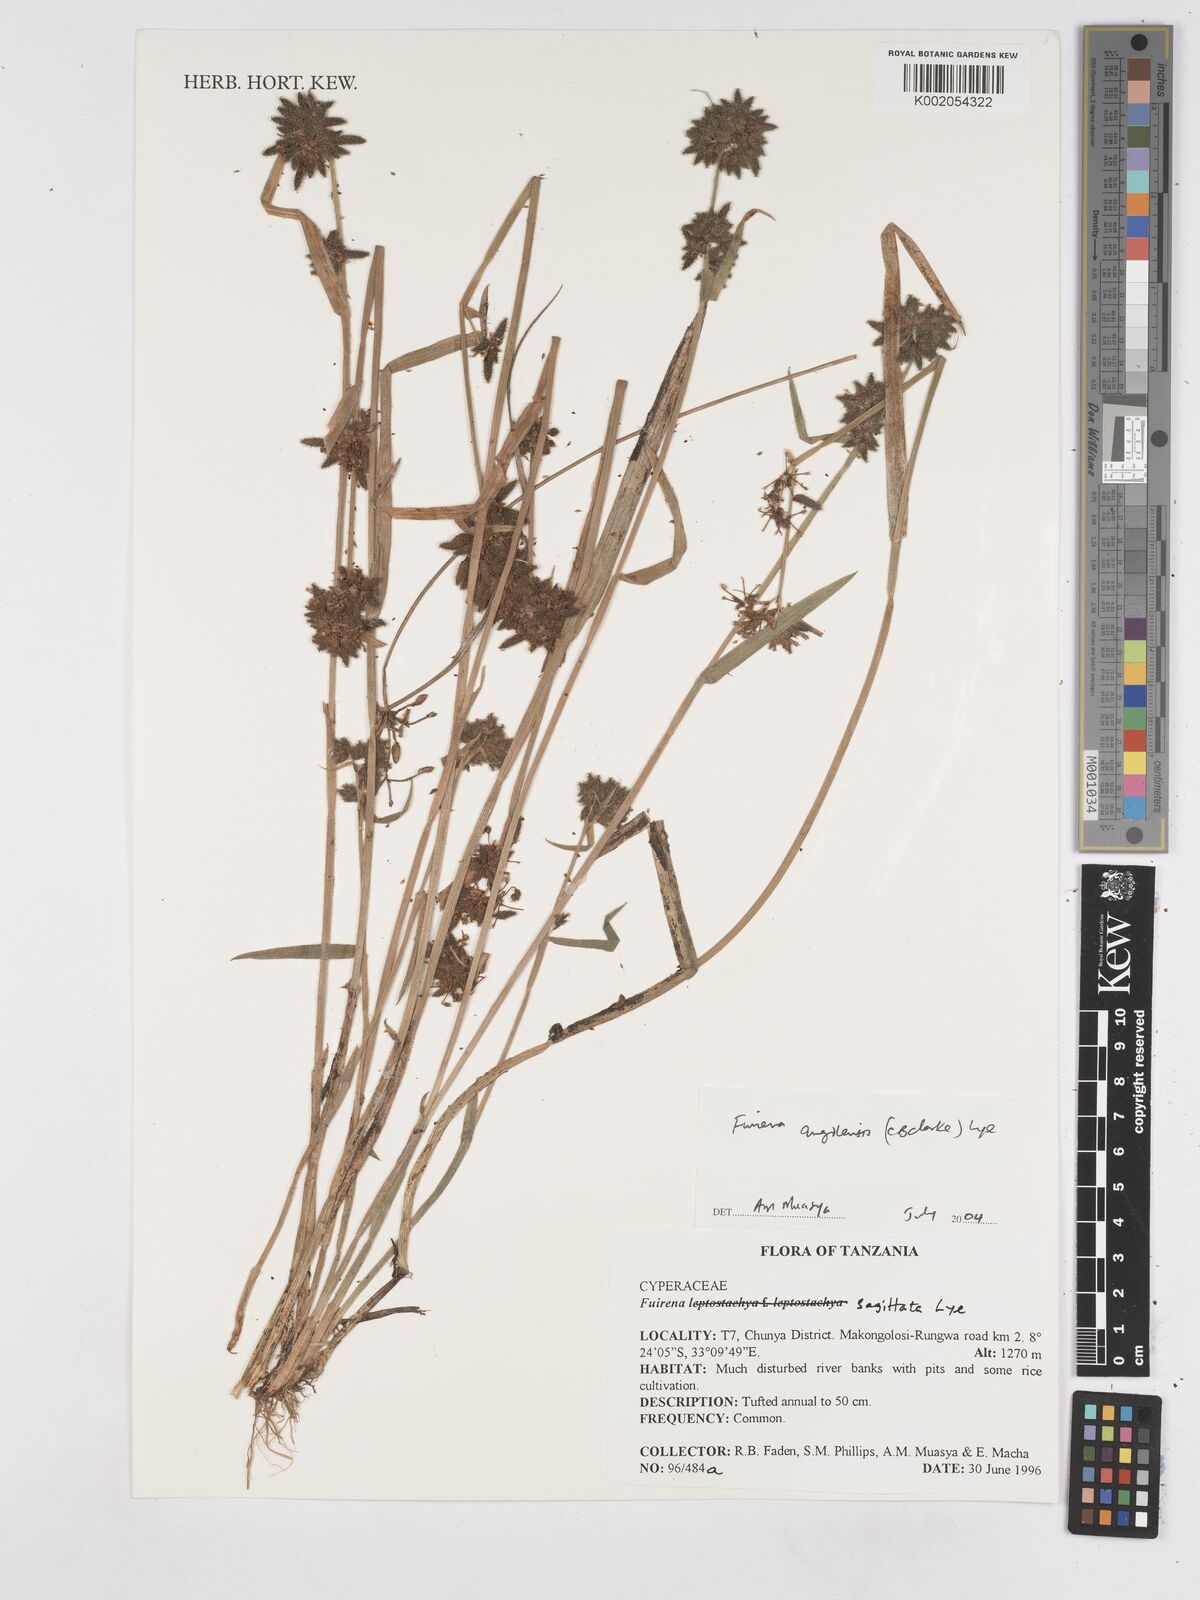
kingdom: Plantae
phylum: Tracheophyta
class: Liliopsida
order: Poales
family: Cyperaceae
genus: Fuirena
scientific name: Fuirena angolensis
